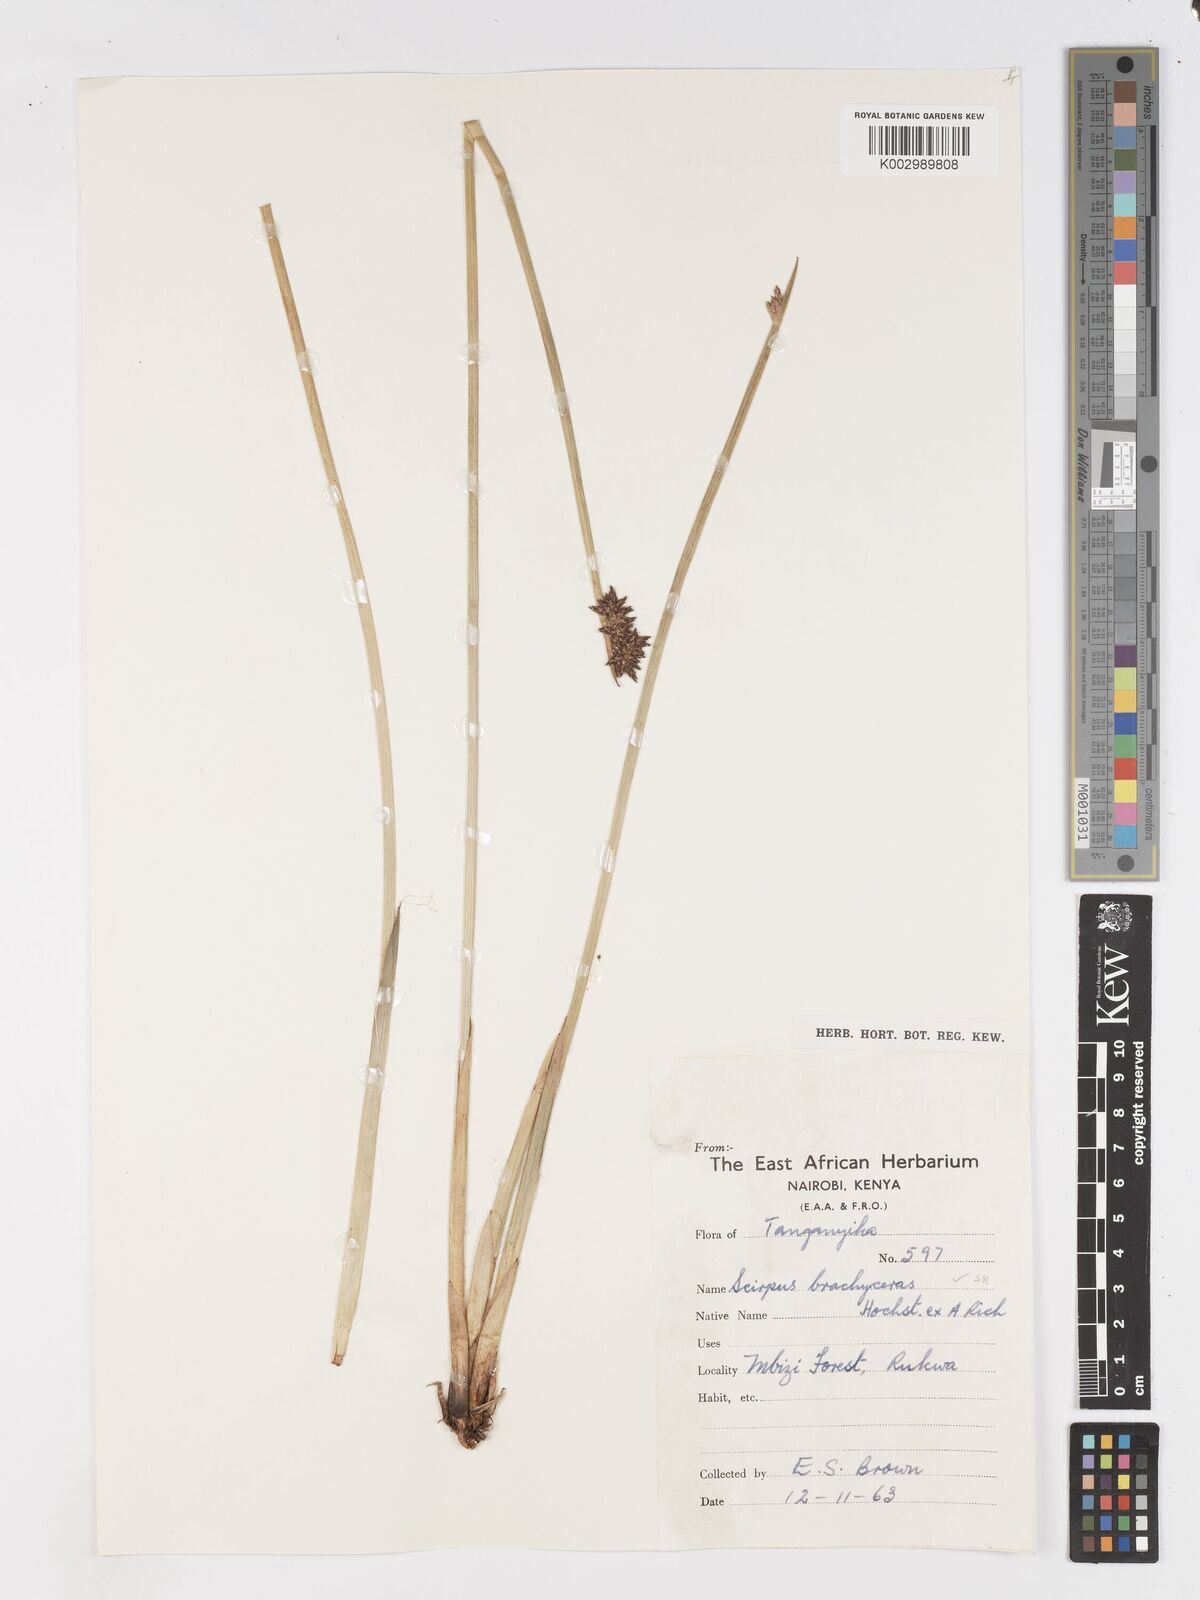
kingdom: Plantae
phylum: Tracheophyta
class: Liliopsida
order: Poales
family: Cyperaceae
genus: Schoenoplectiella
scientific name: Schoenoplectiella brachyceras
